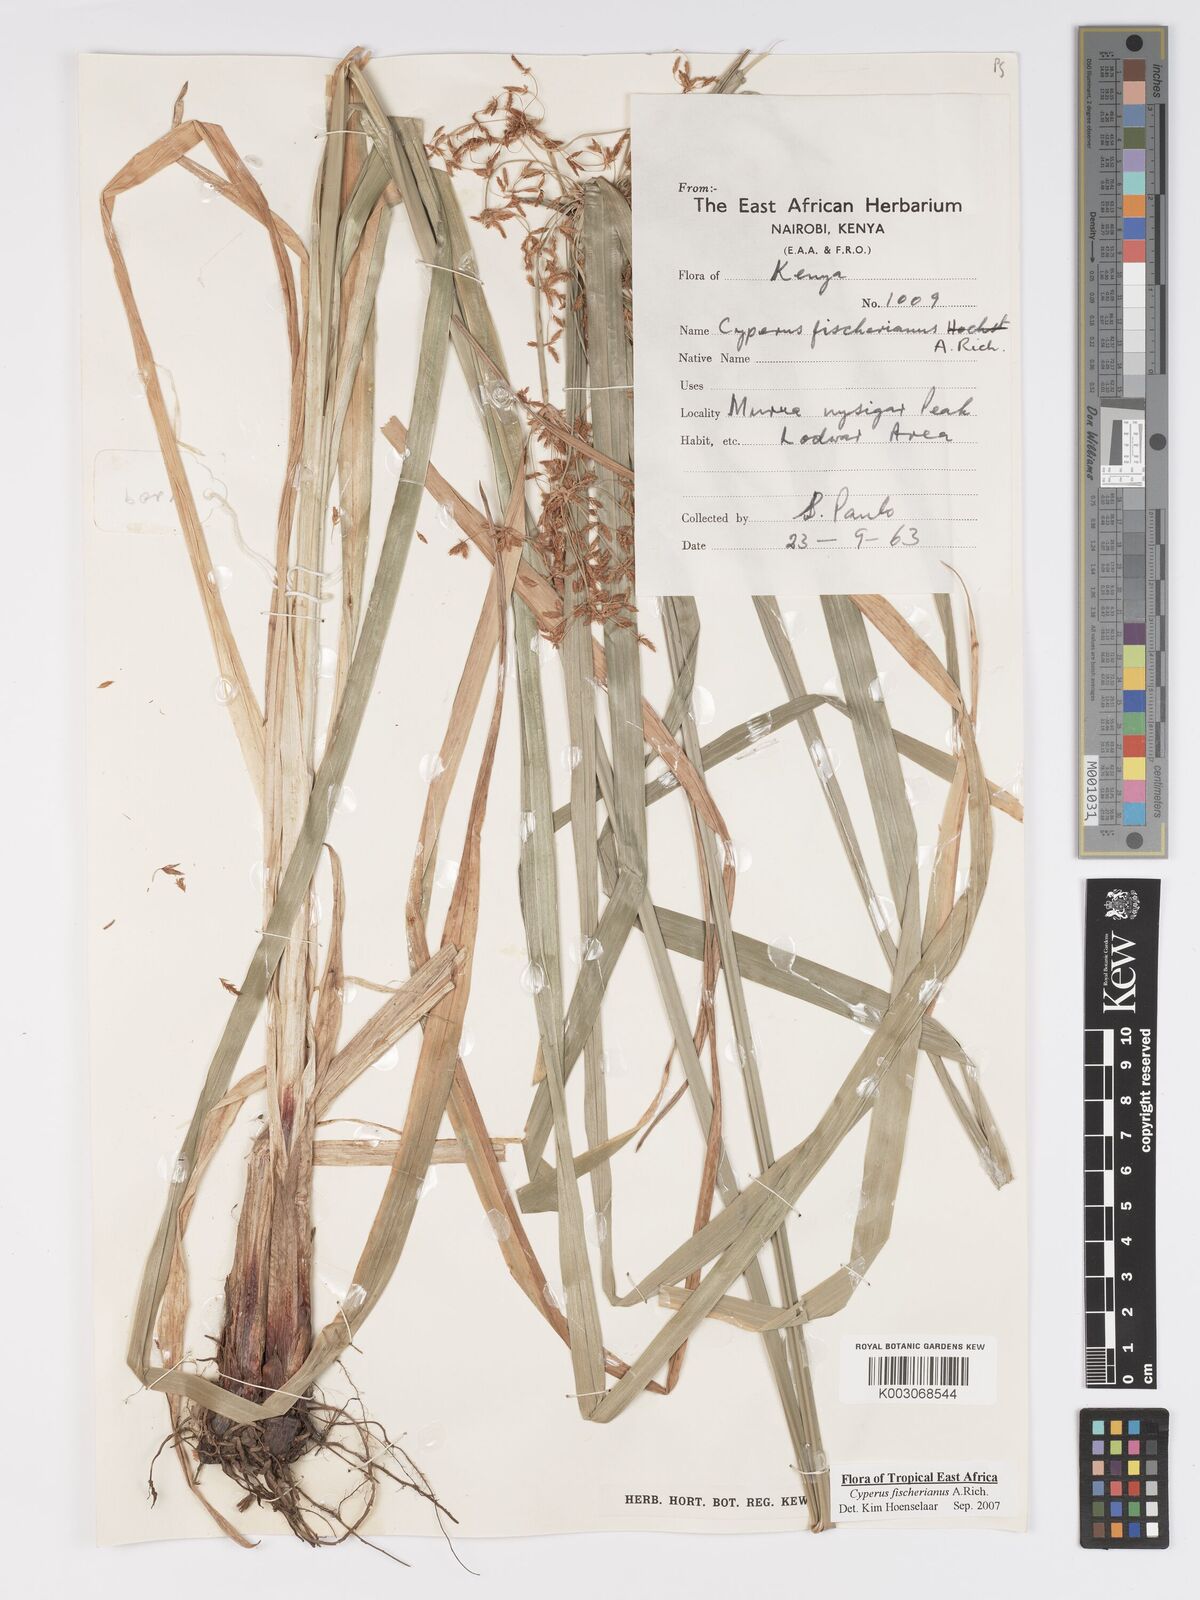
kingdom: Plantae
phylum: Tracheophyta
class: Liliopsida
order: Poales
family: Cyperaceae
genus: Cyperus
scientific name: Cyperus fischerianus
